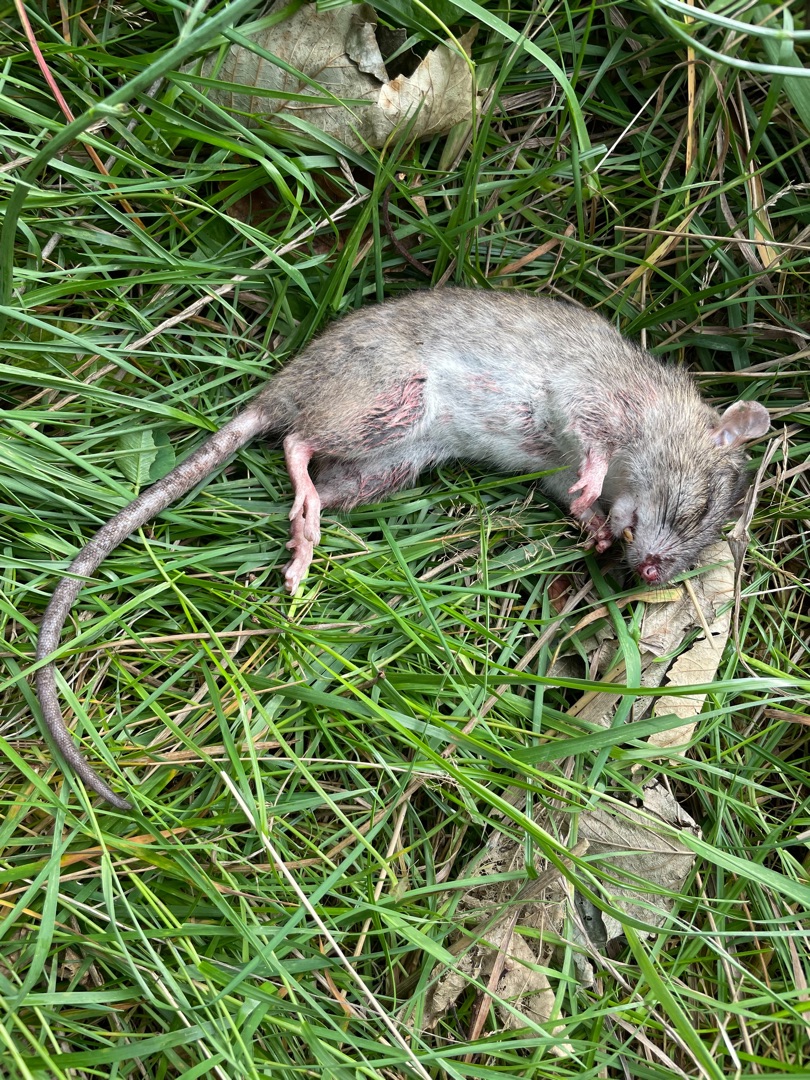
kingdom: Animalia
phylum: Chordata
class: Mammalia
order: Rodentia
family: Muridae
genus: Rattus
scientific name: Rattus norvegicus
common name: Brun rotte
